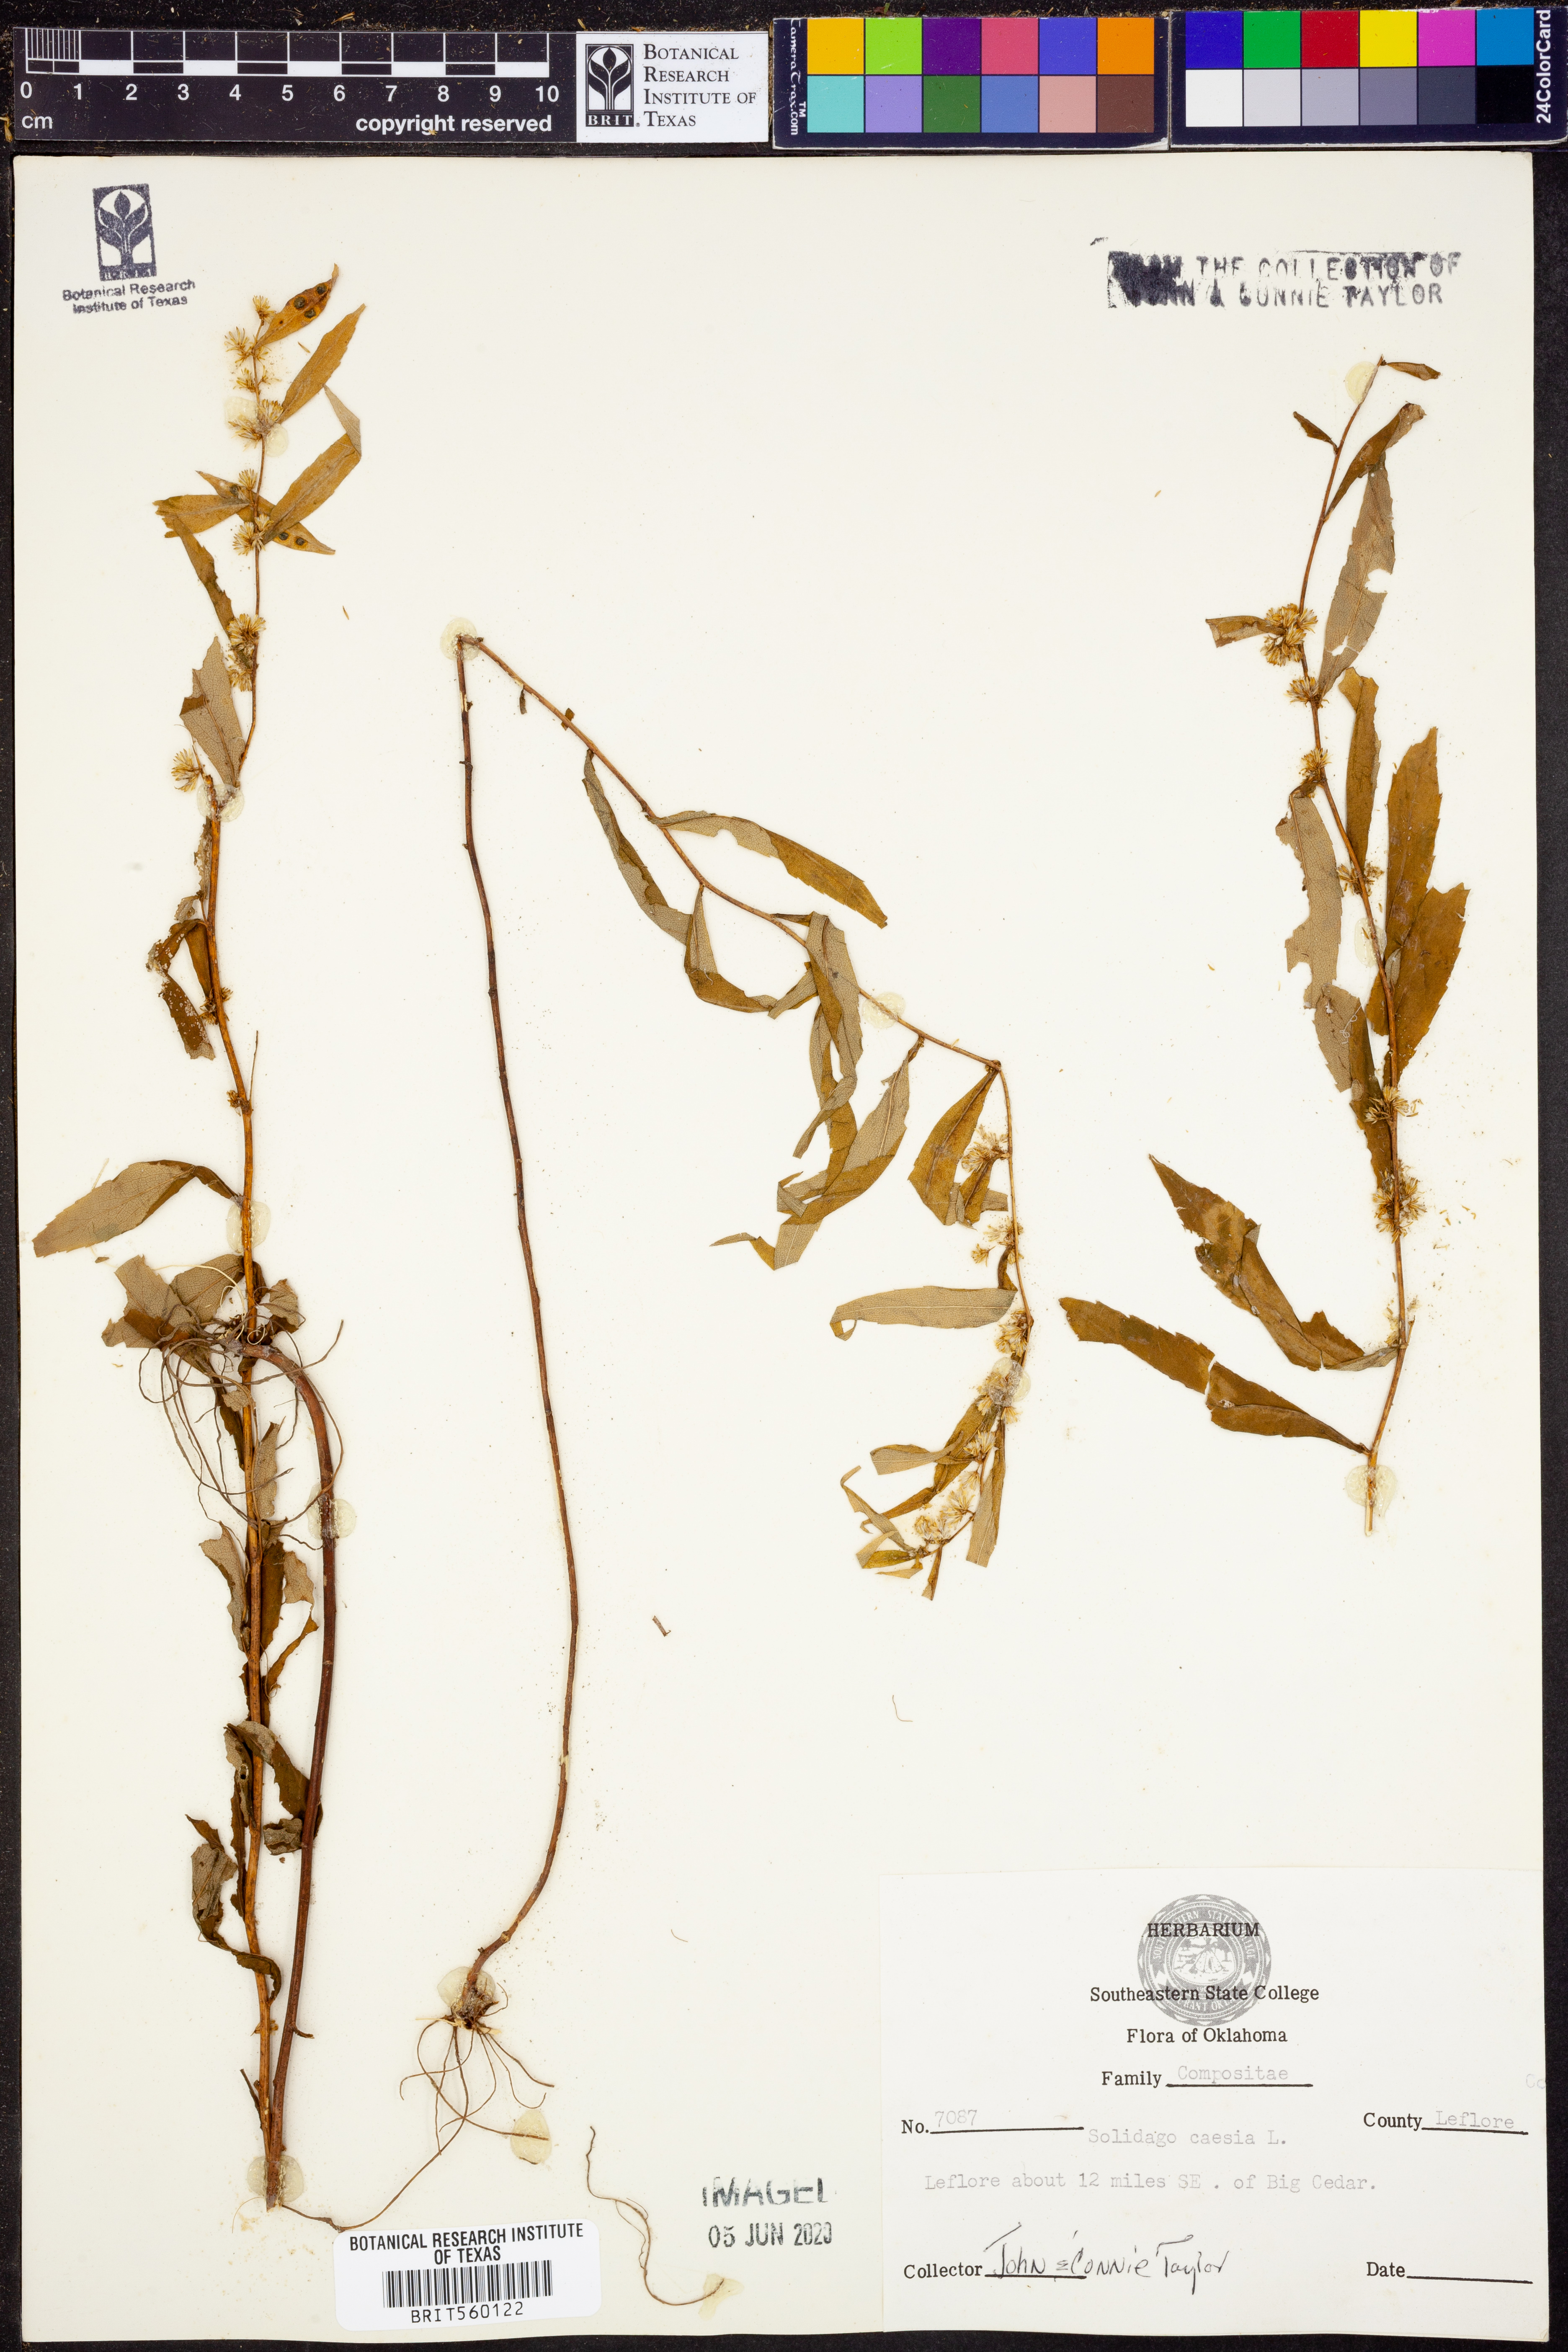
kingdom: Plantae
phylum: Tracheophyta
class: Magnoliopsida
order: Asterales
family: Asteraceae
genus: Solidago
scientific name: Solidago caesia
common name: Woodland goldenrod
